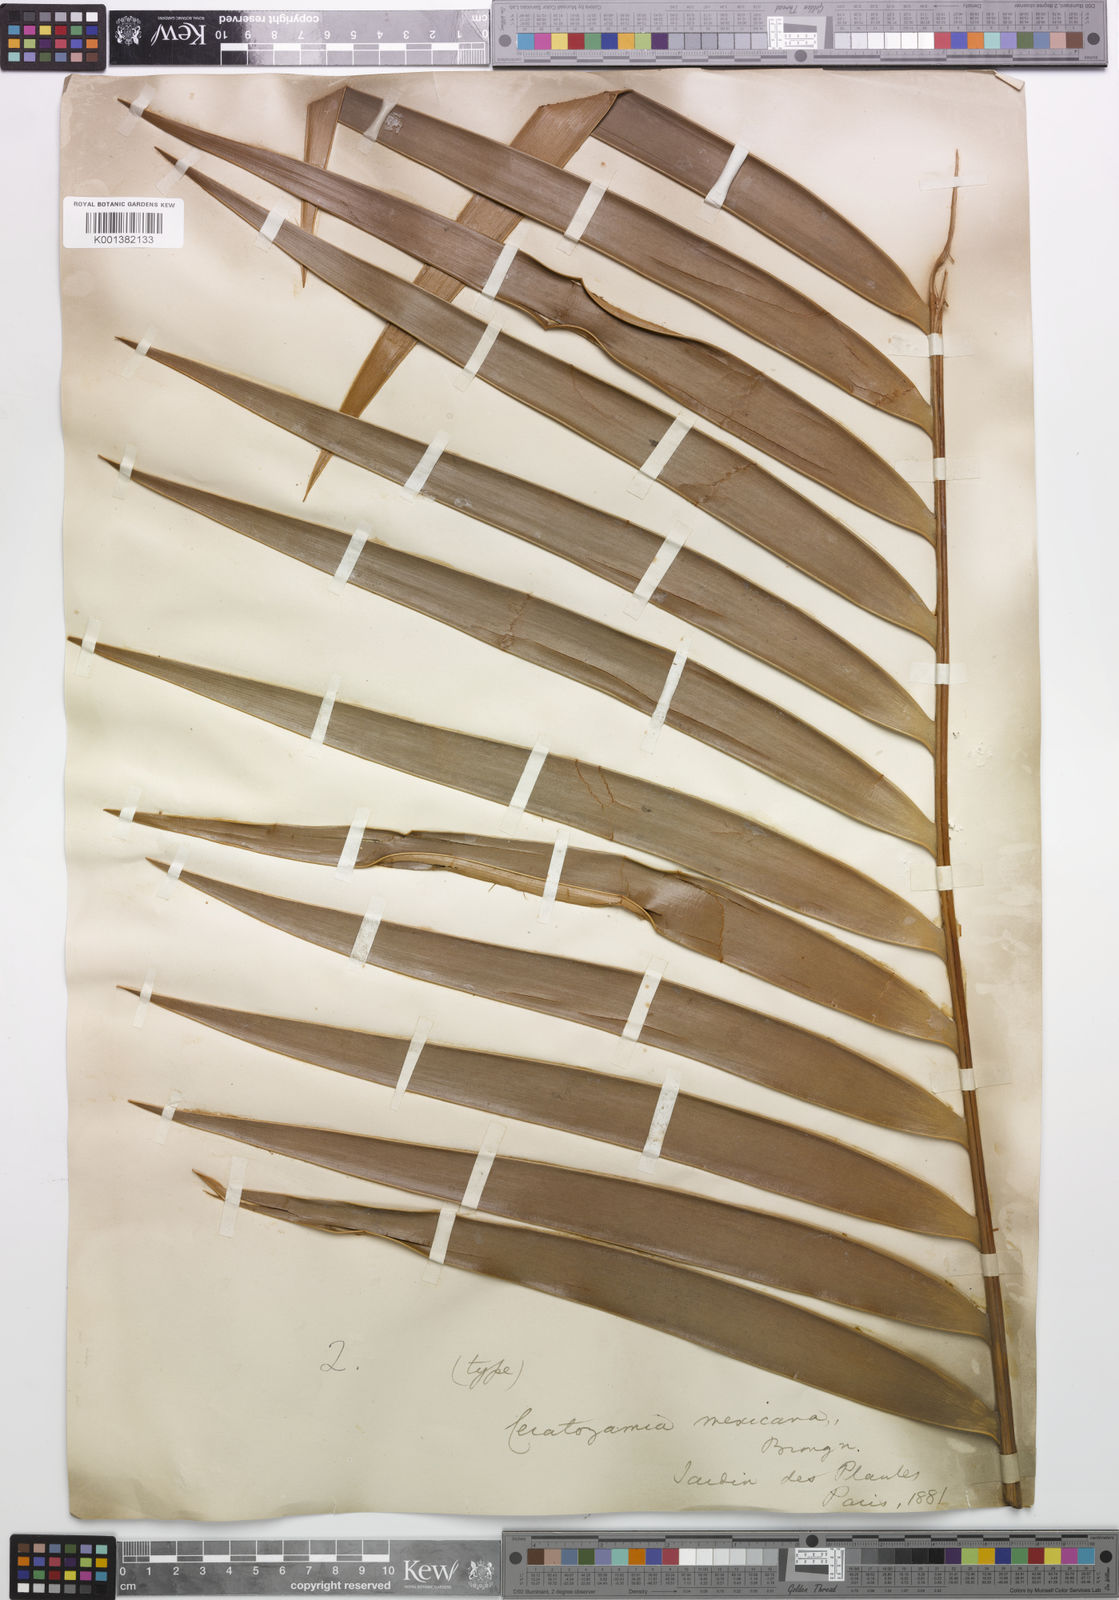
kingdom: Plantae
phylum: Tracheophyta
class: Cycadopsida
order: Cycadales
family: Zamiaceae
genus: Ceratozamia
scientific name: Ceratozamia mexicana
